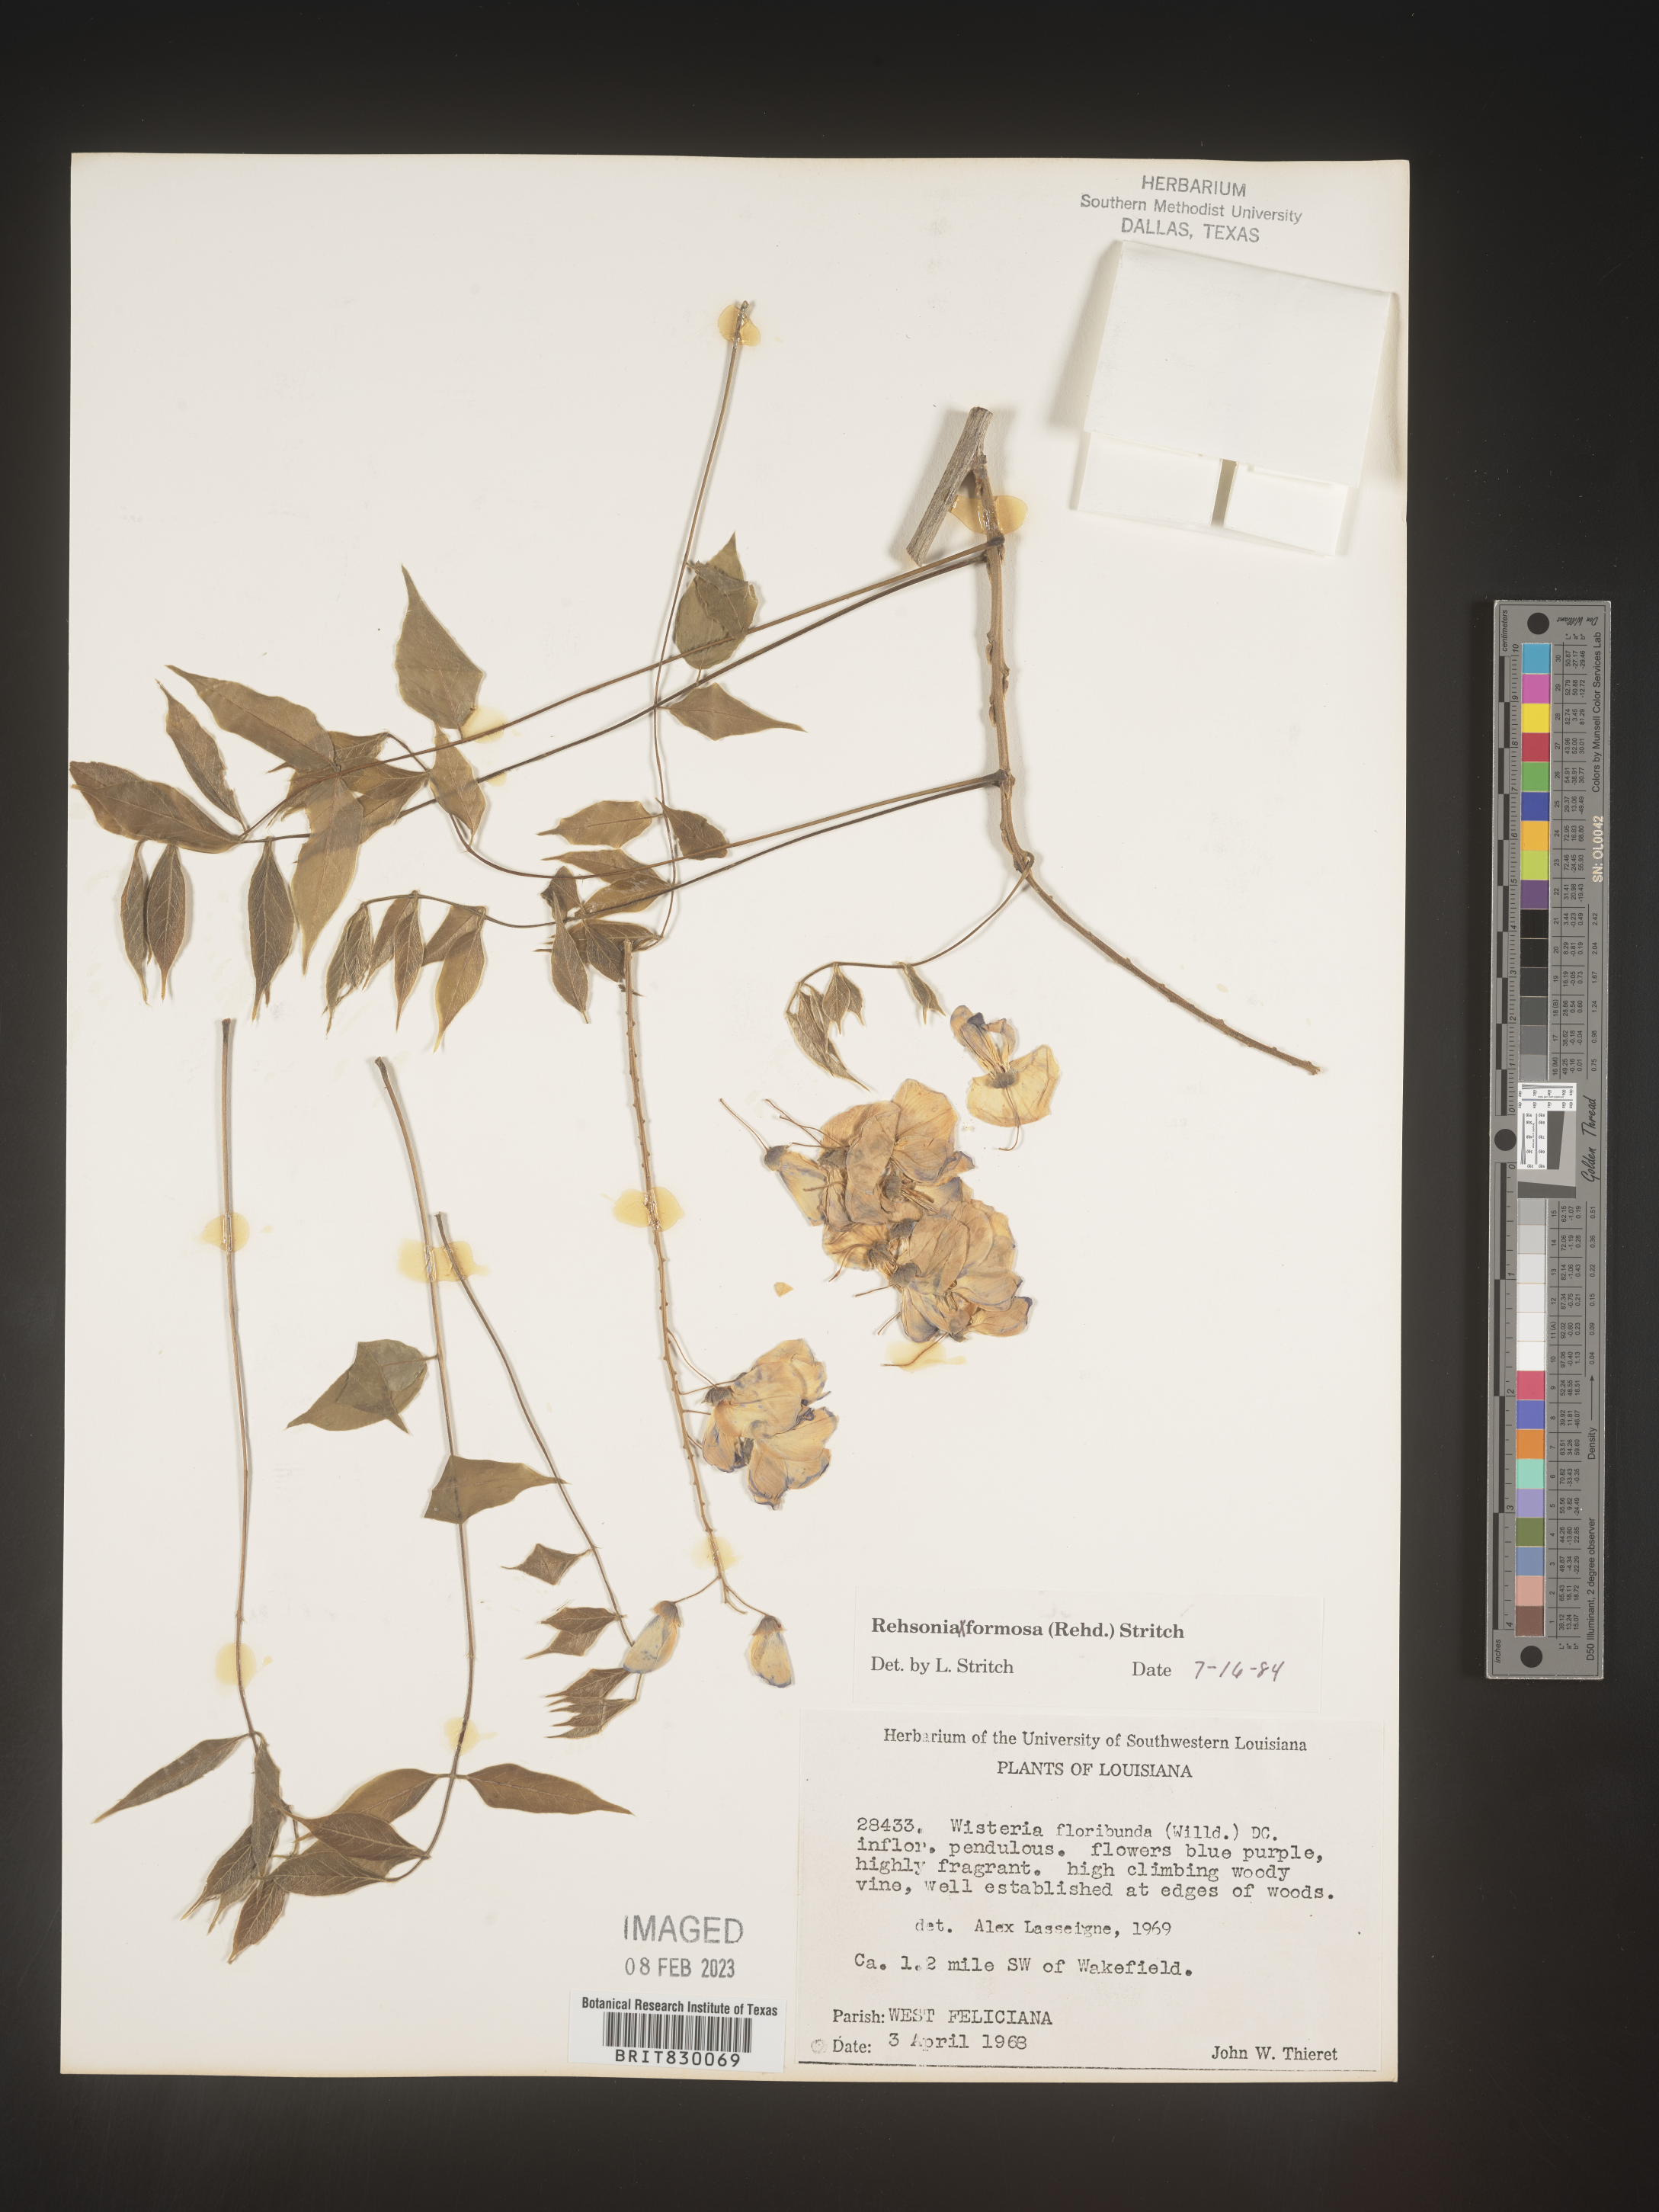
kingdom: Plantae
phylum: Tracheophyta
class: Magnoliopsida
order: Fabales
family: Fabaceae
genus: Wisteria
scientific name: Wisteria
